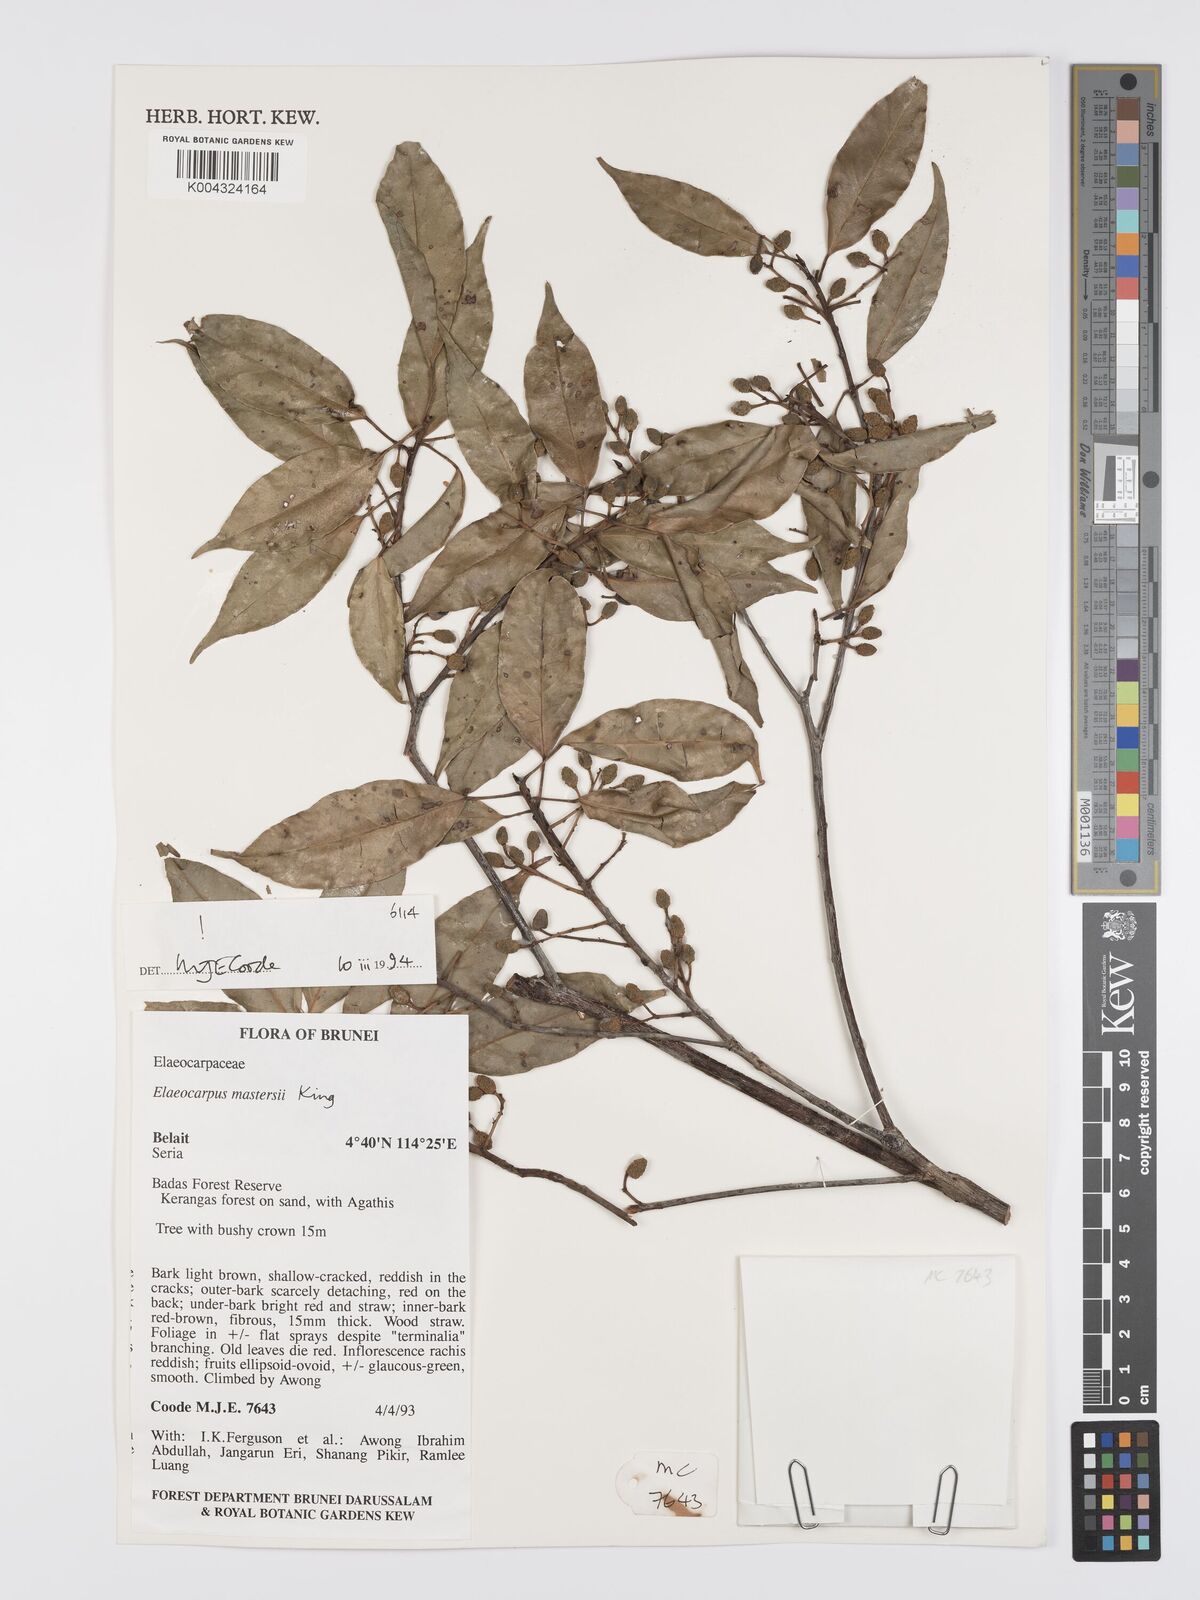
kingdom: Plantae
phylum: Tracheophyta
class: Magnoliopsida
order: Oxalidales
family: Elaeocarpaceae
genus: Elaeocarpus
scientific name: Elaeocarpus mastersii
